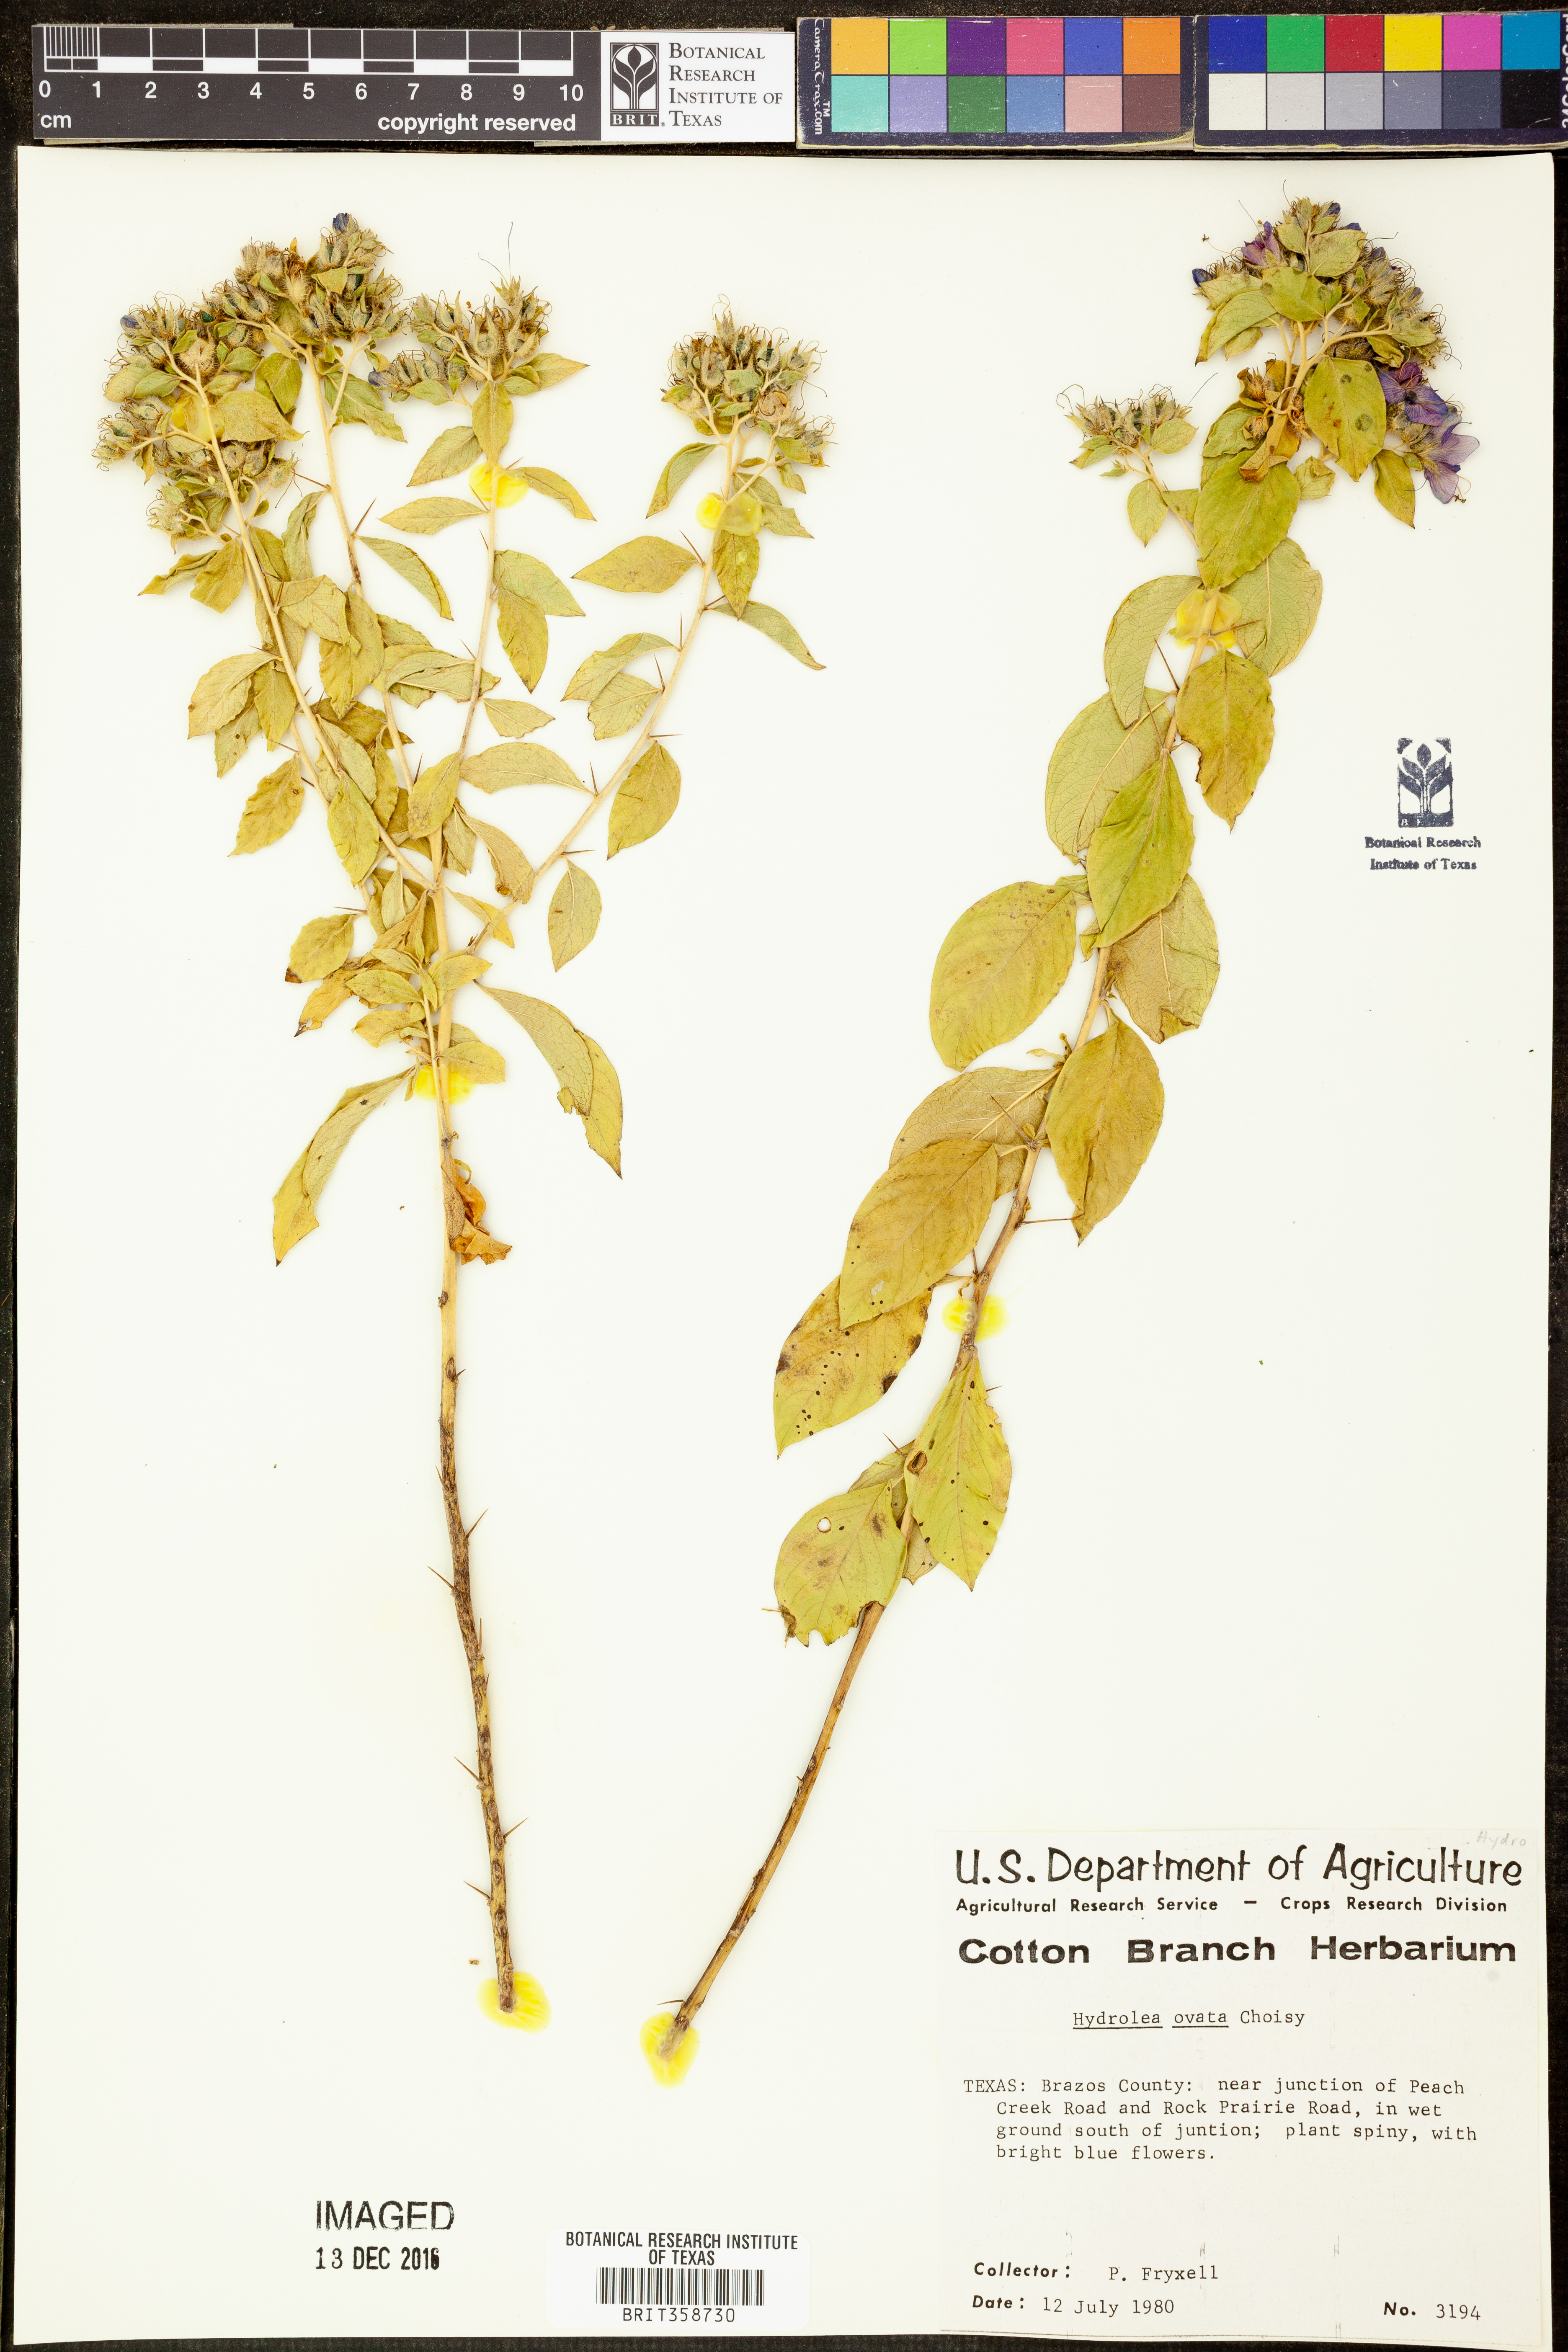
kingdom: Plantae
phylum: Tracheophyta
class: Magnoliopsida
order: Solanales
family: Hydroleaceae
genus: Hydrolea
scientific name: Hydrolea ovata
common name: Ovate false fiddleleaf
